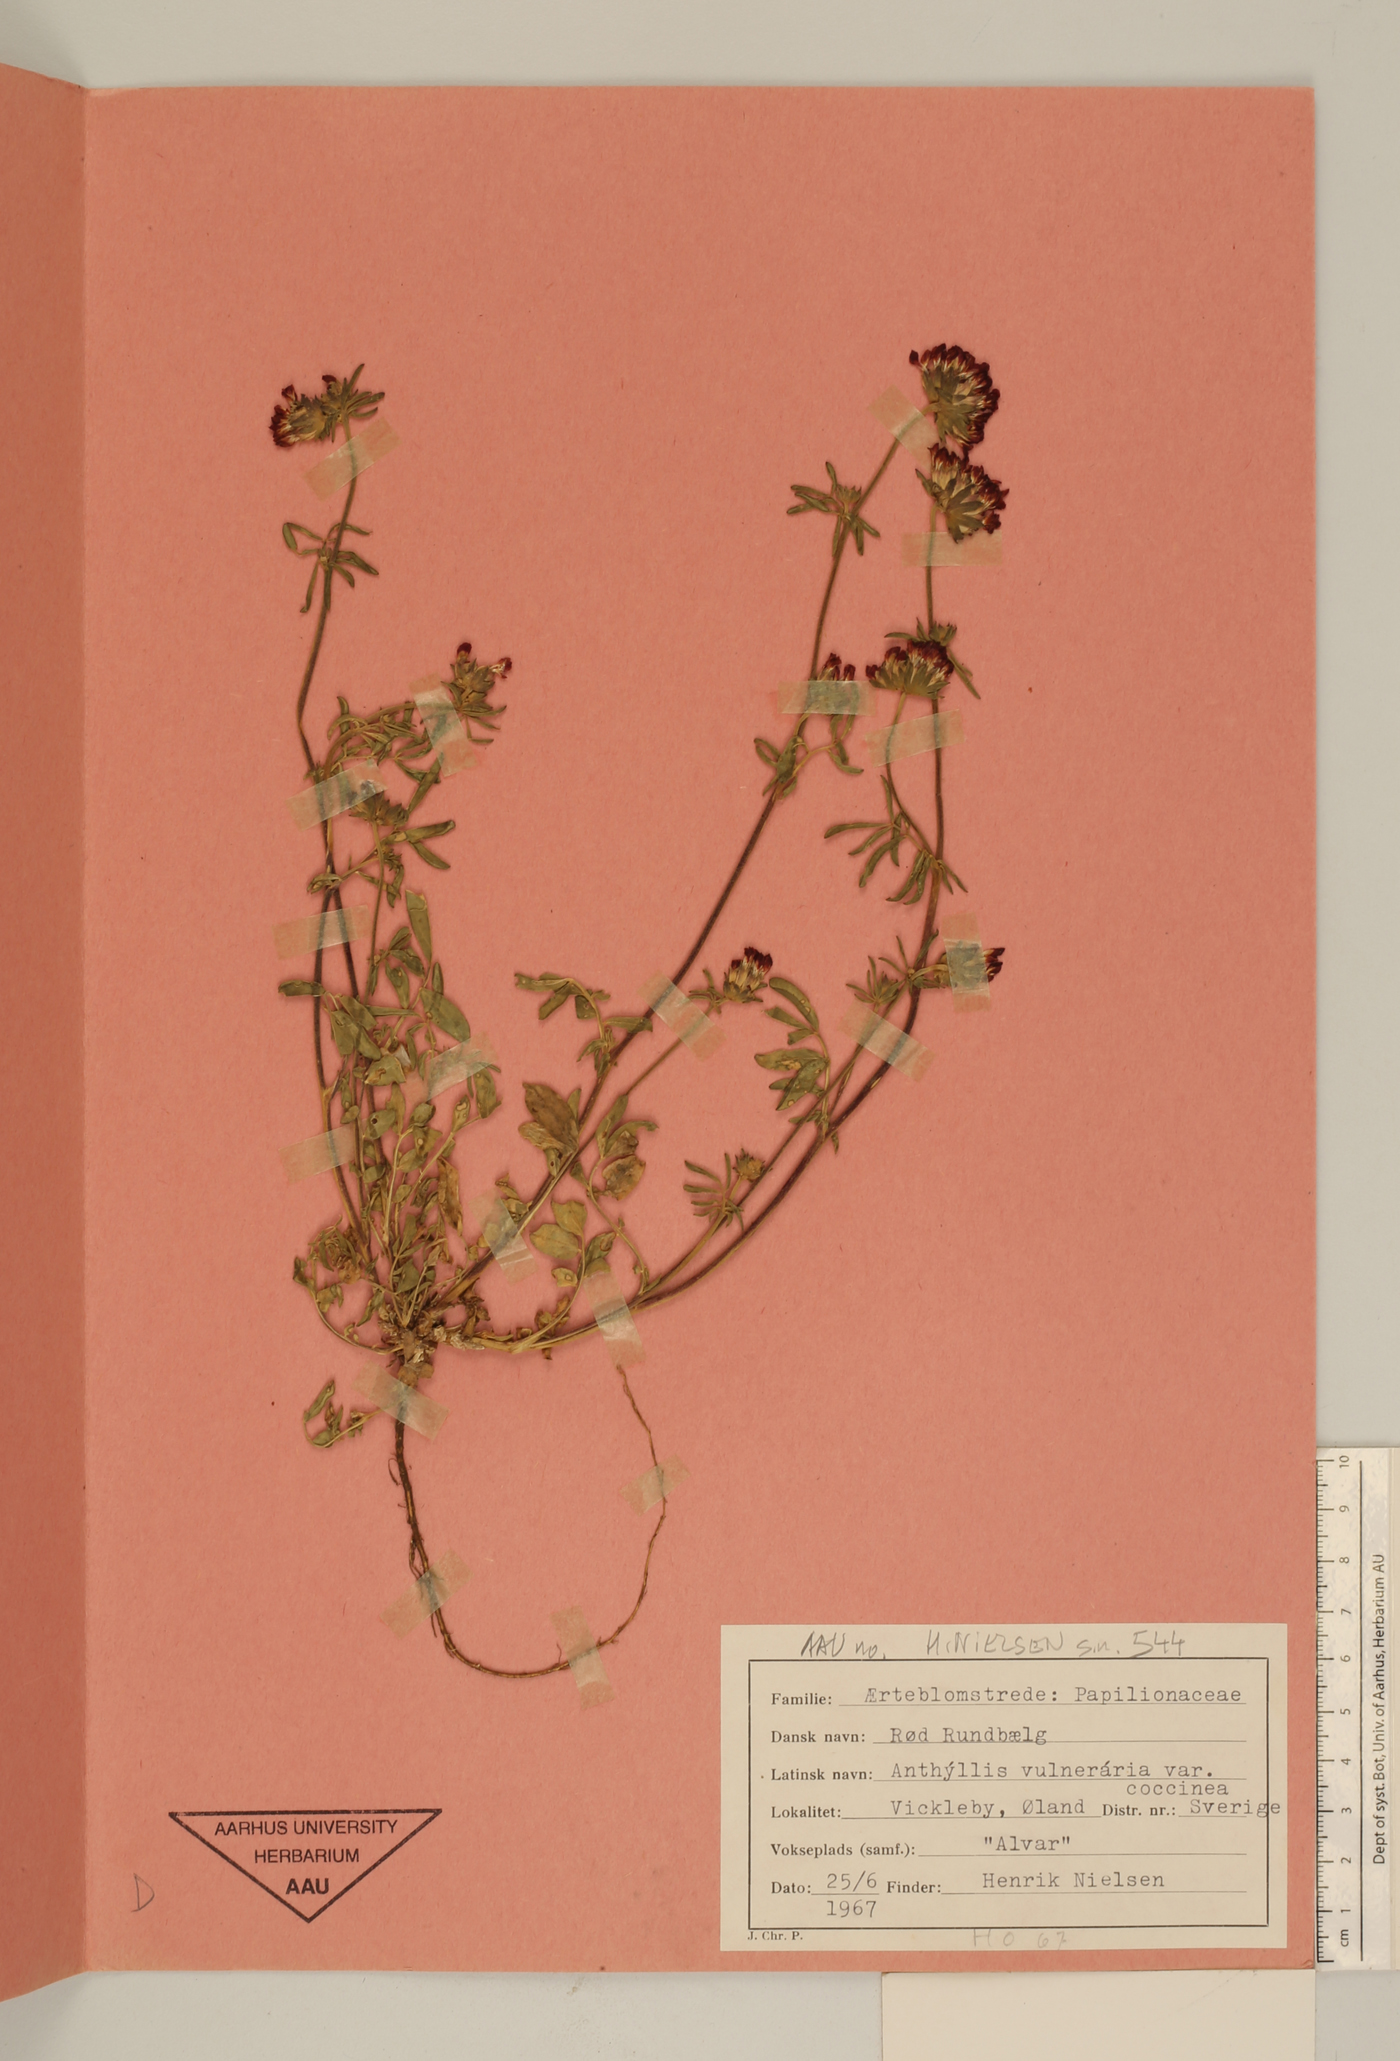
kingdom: Plantae
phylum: Tracheophyta
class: Magnoliopsida
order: Fabales
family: Fabaceae
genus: Anthyllis
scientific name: Anthyllis vulneraria
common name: Kidney vetch
